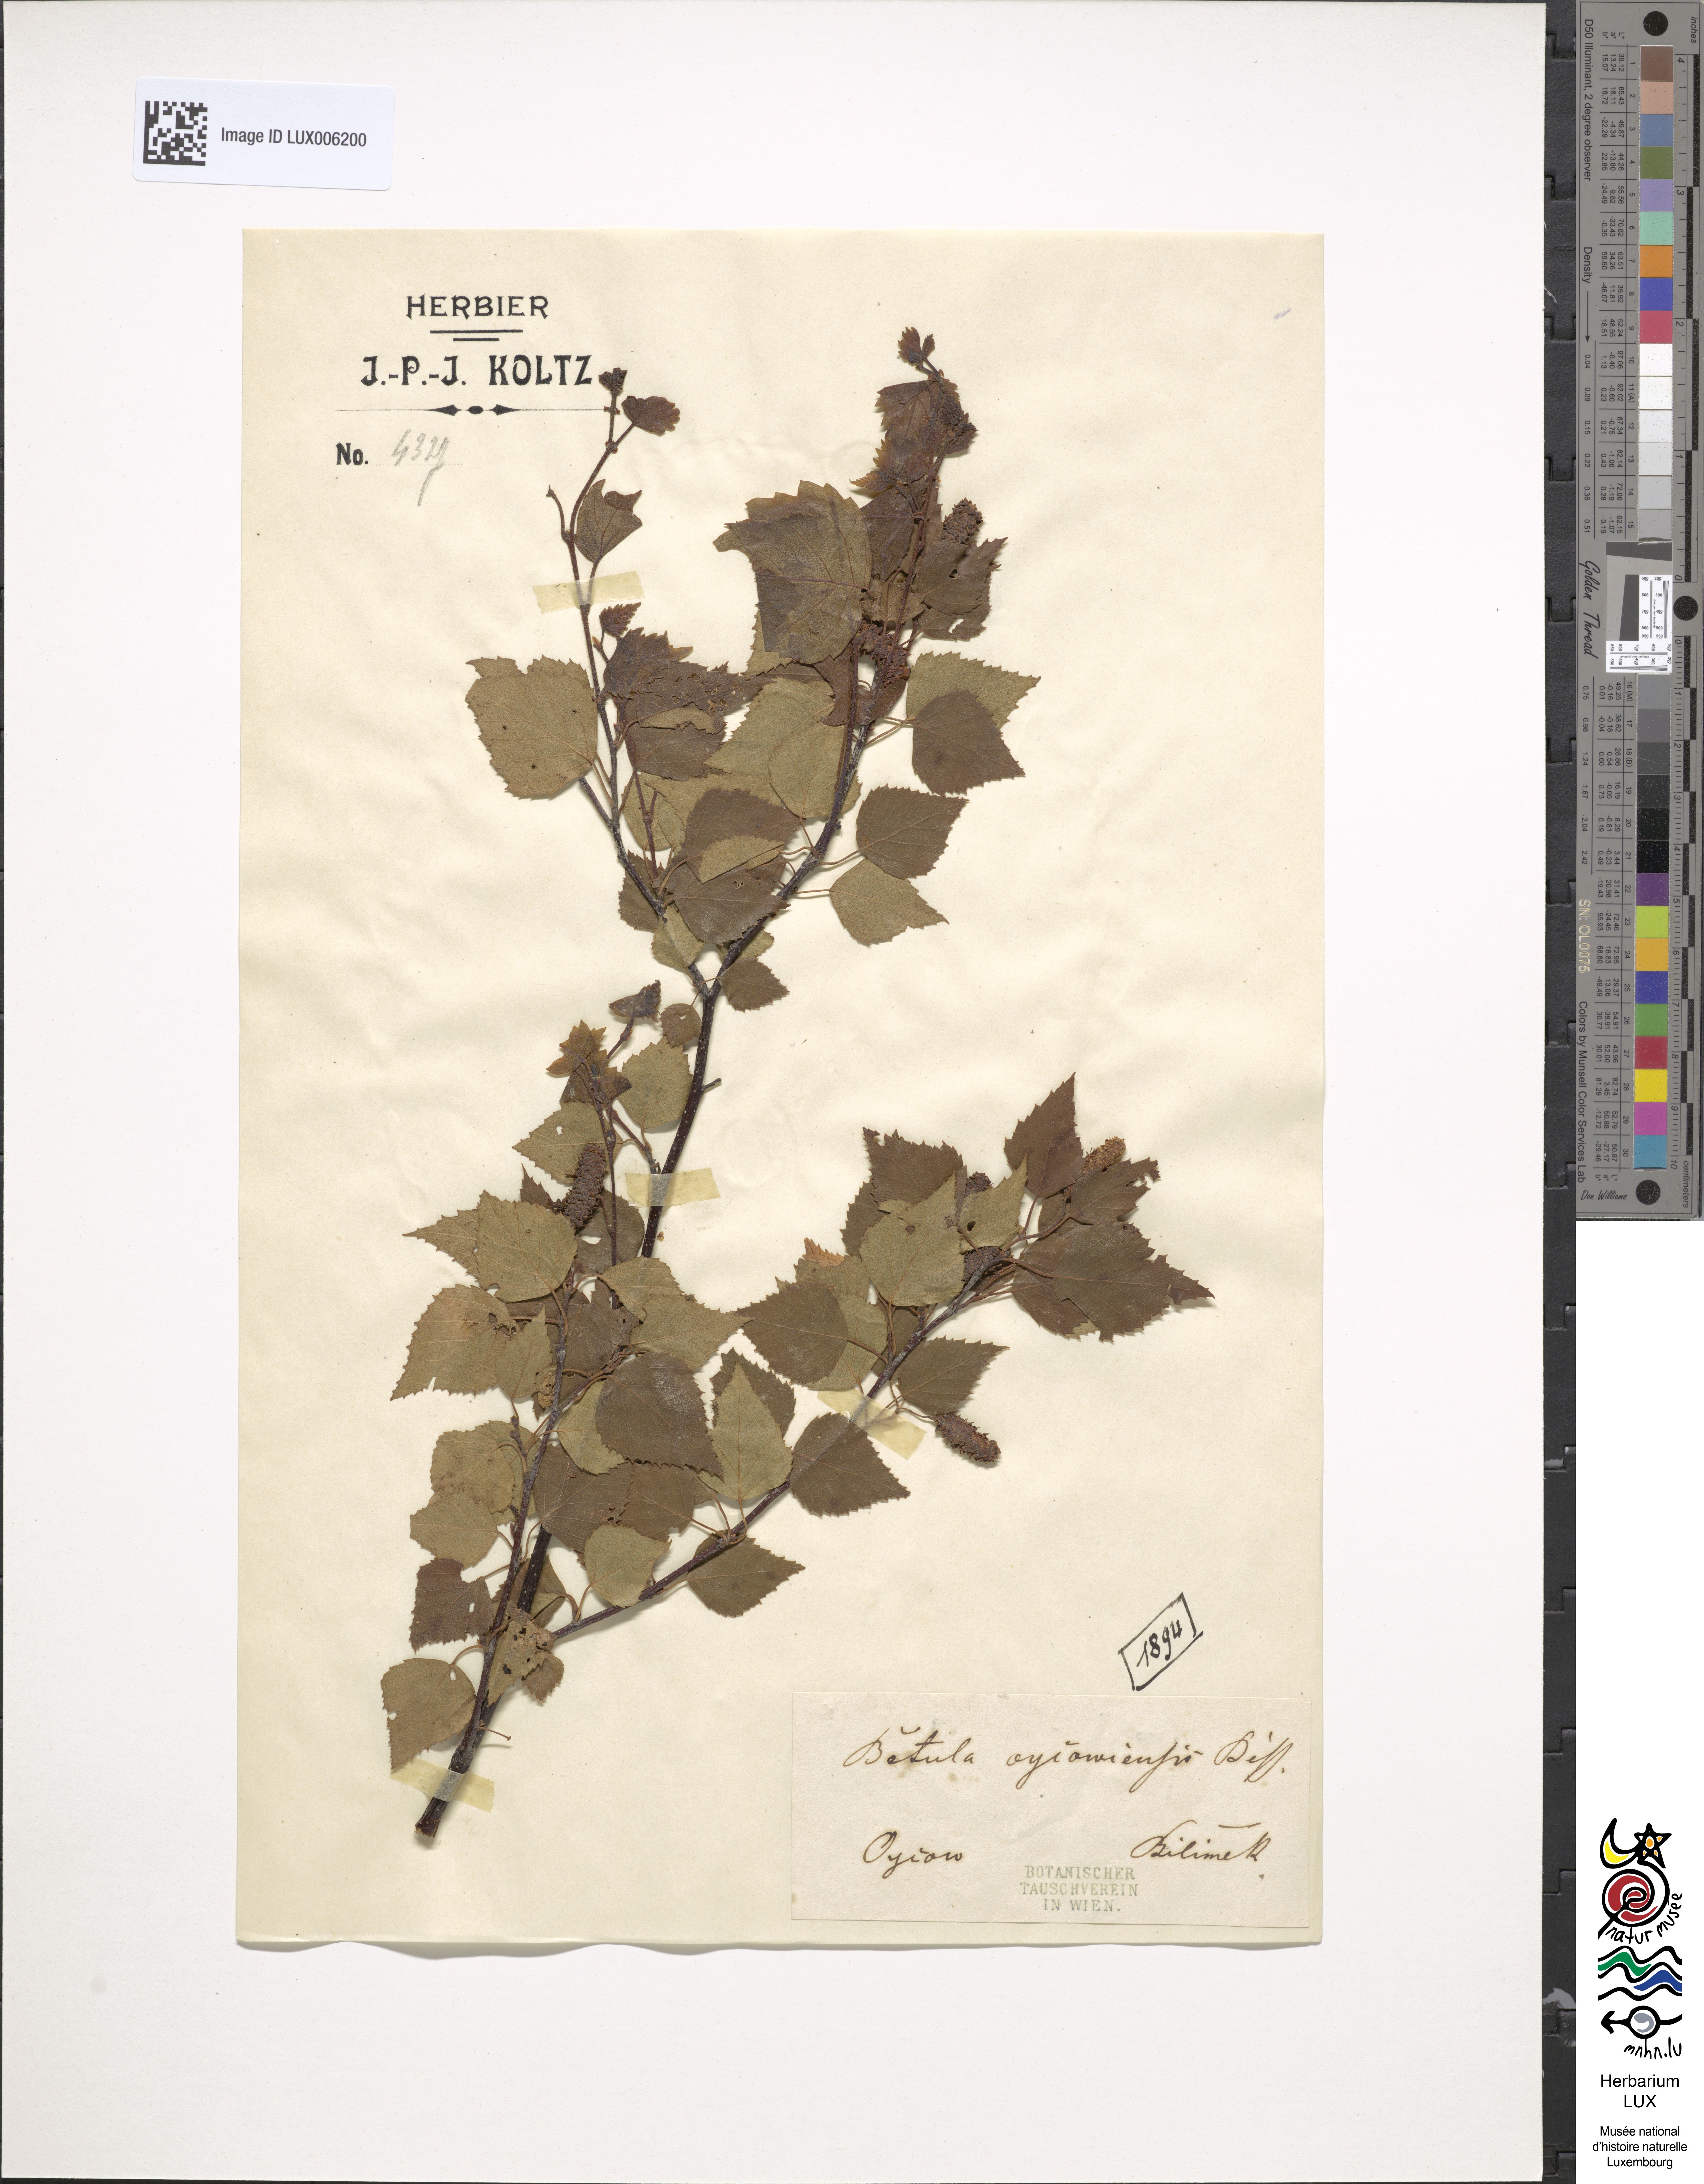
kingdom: Plantae
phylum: Tracheophyta
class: Magnoliopsida
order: Fagales
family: Betulaceae
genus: Betula
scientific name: Betula pendula
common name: Silver birch
